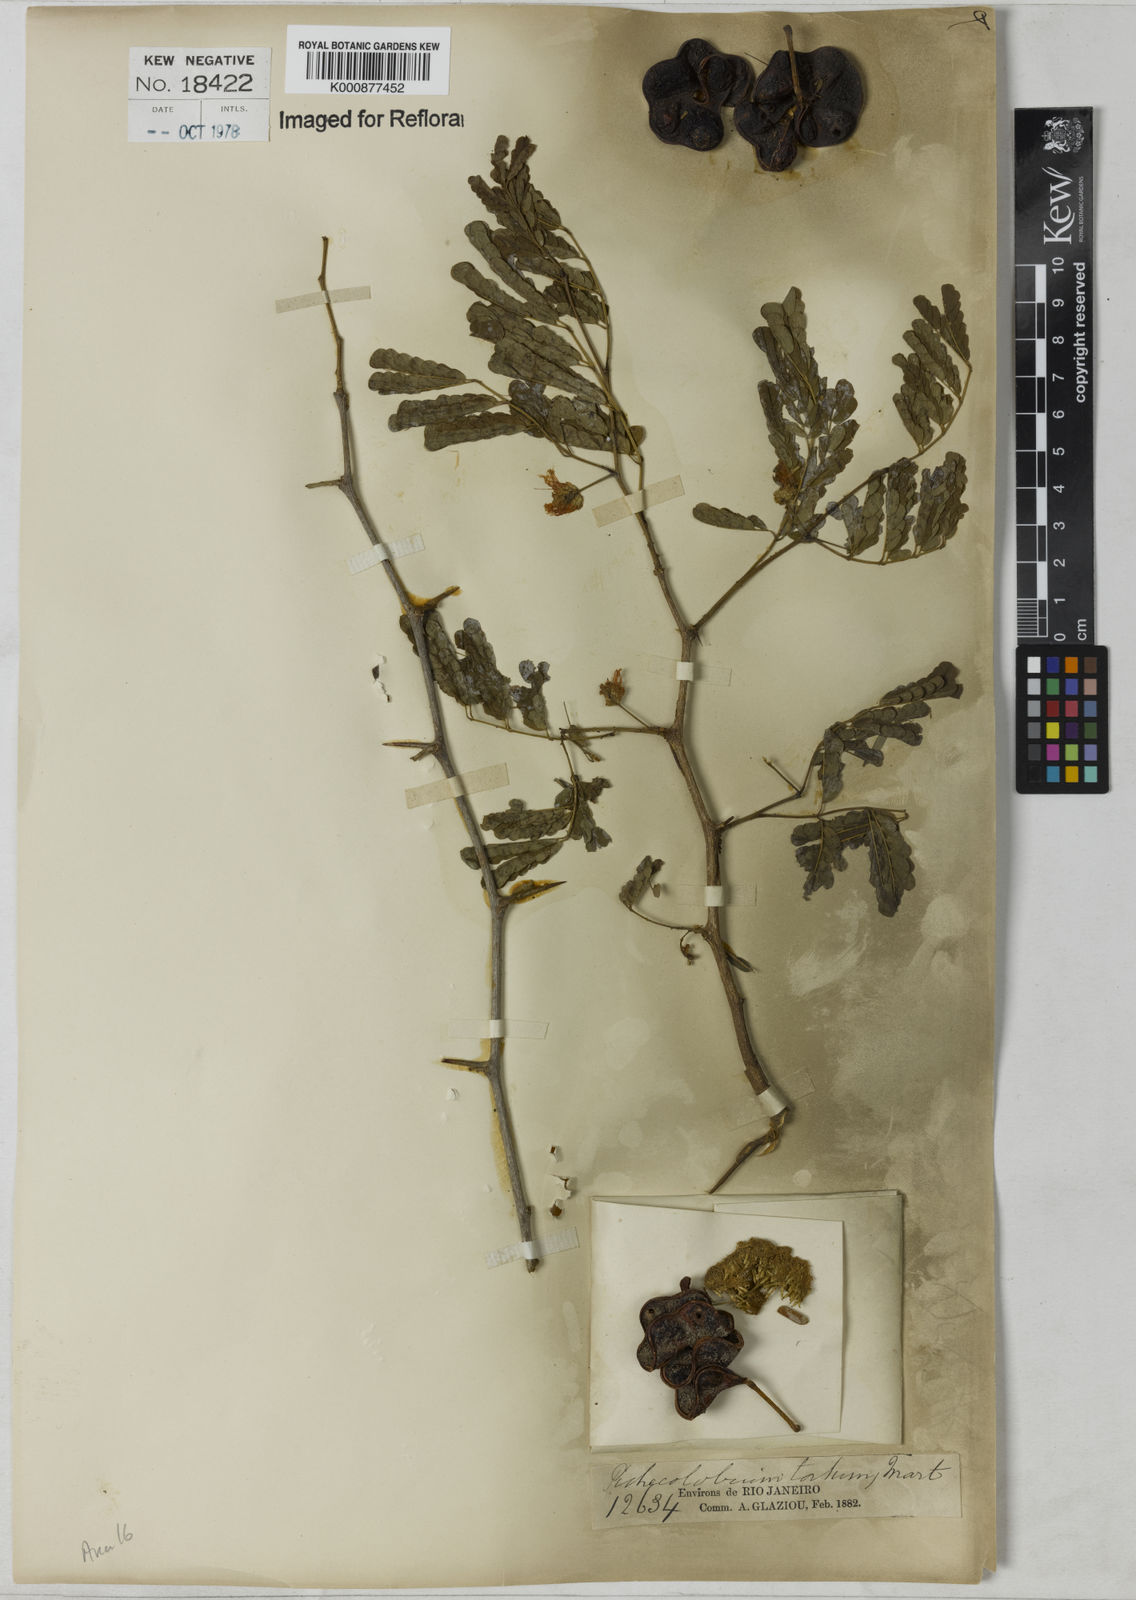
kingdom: Plantae
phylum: Tracheophyta
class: Magnoliopsida
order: Fabales
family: Fabaceae
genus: Chloroleucon
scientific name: Chloroleucon tortum
